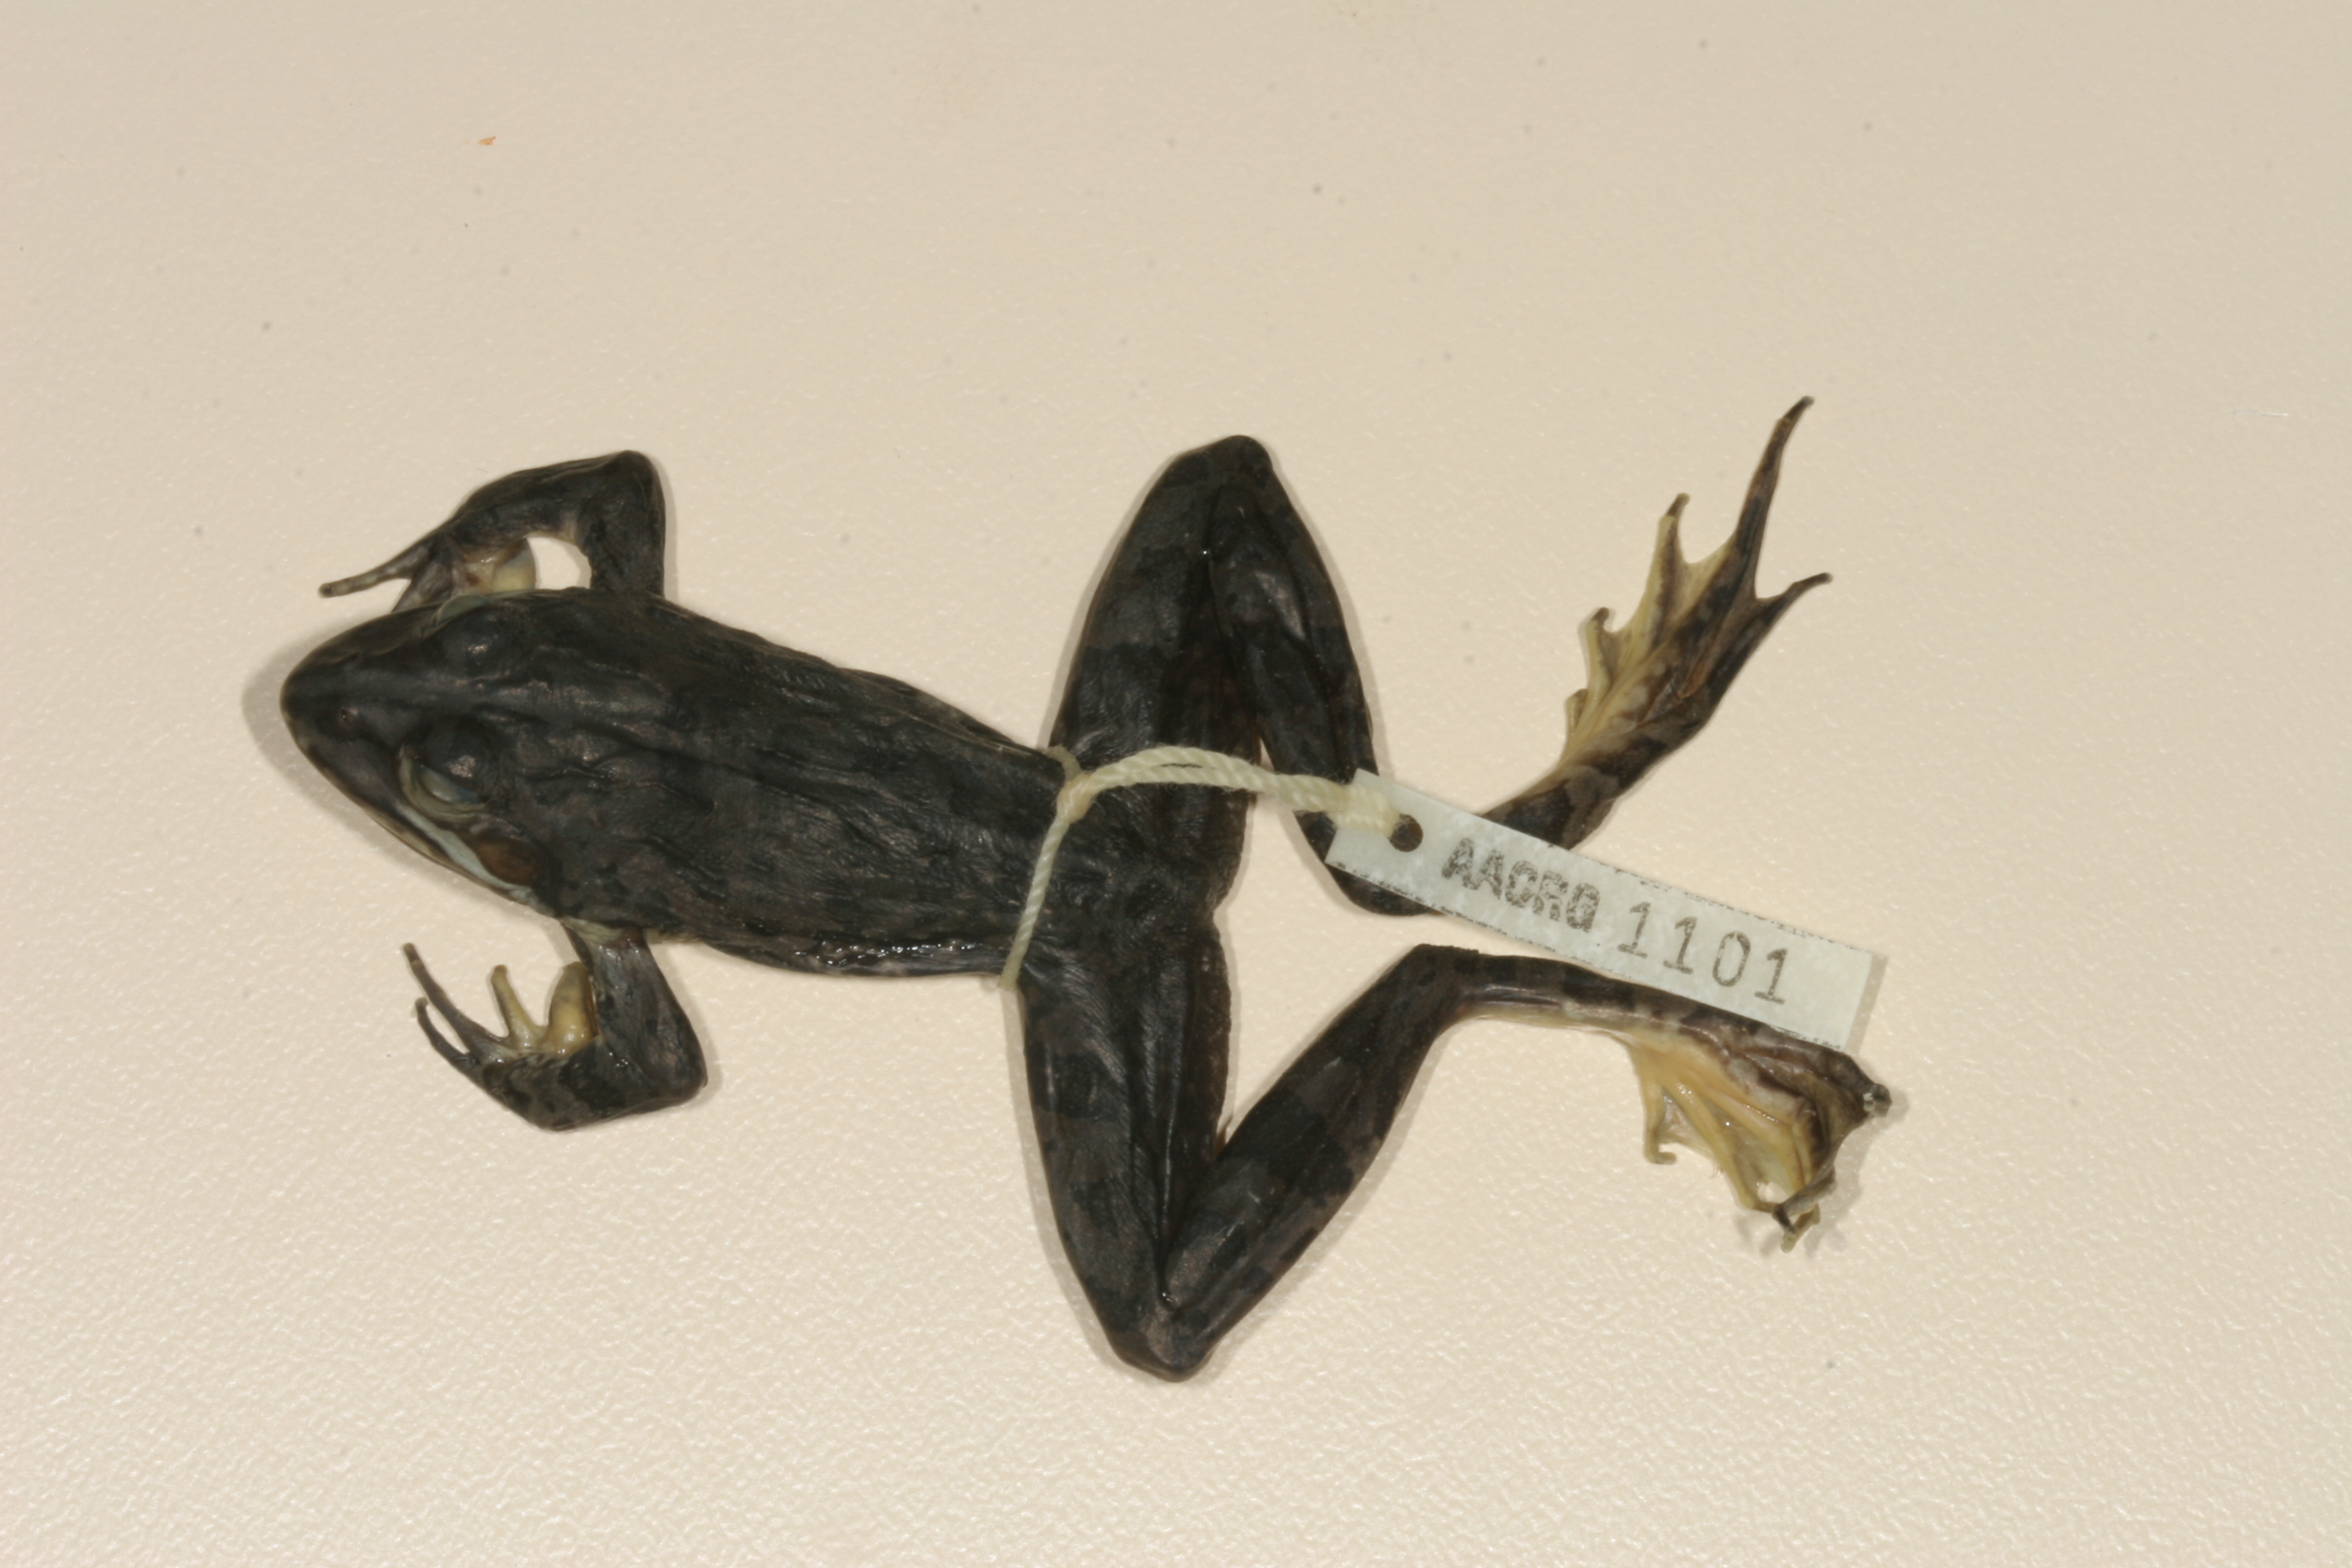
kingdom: Animalia
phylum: Chordata
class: Amphibia
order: Anura
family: Pyxicephalidae
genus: Amietia
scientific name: Amietia delalandii
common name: Delalande's river frog
